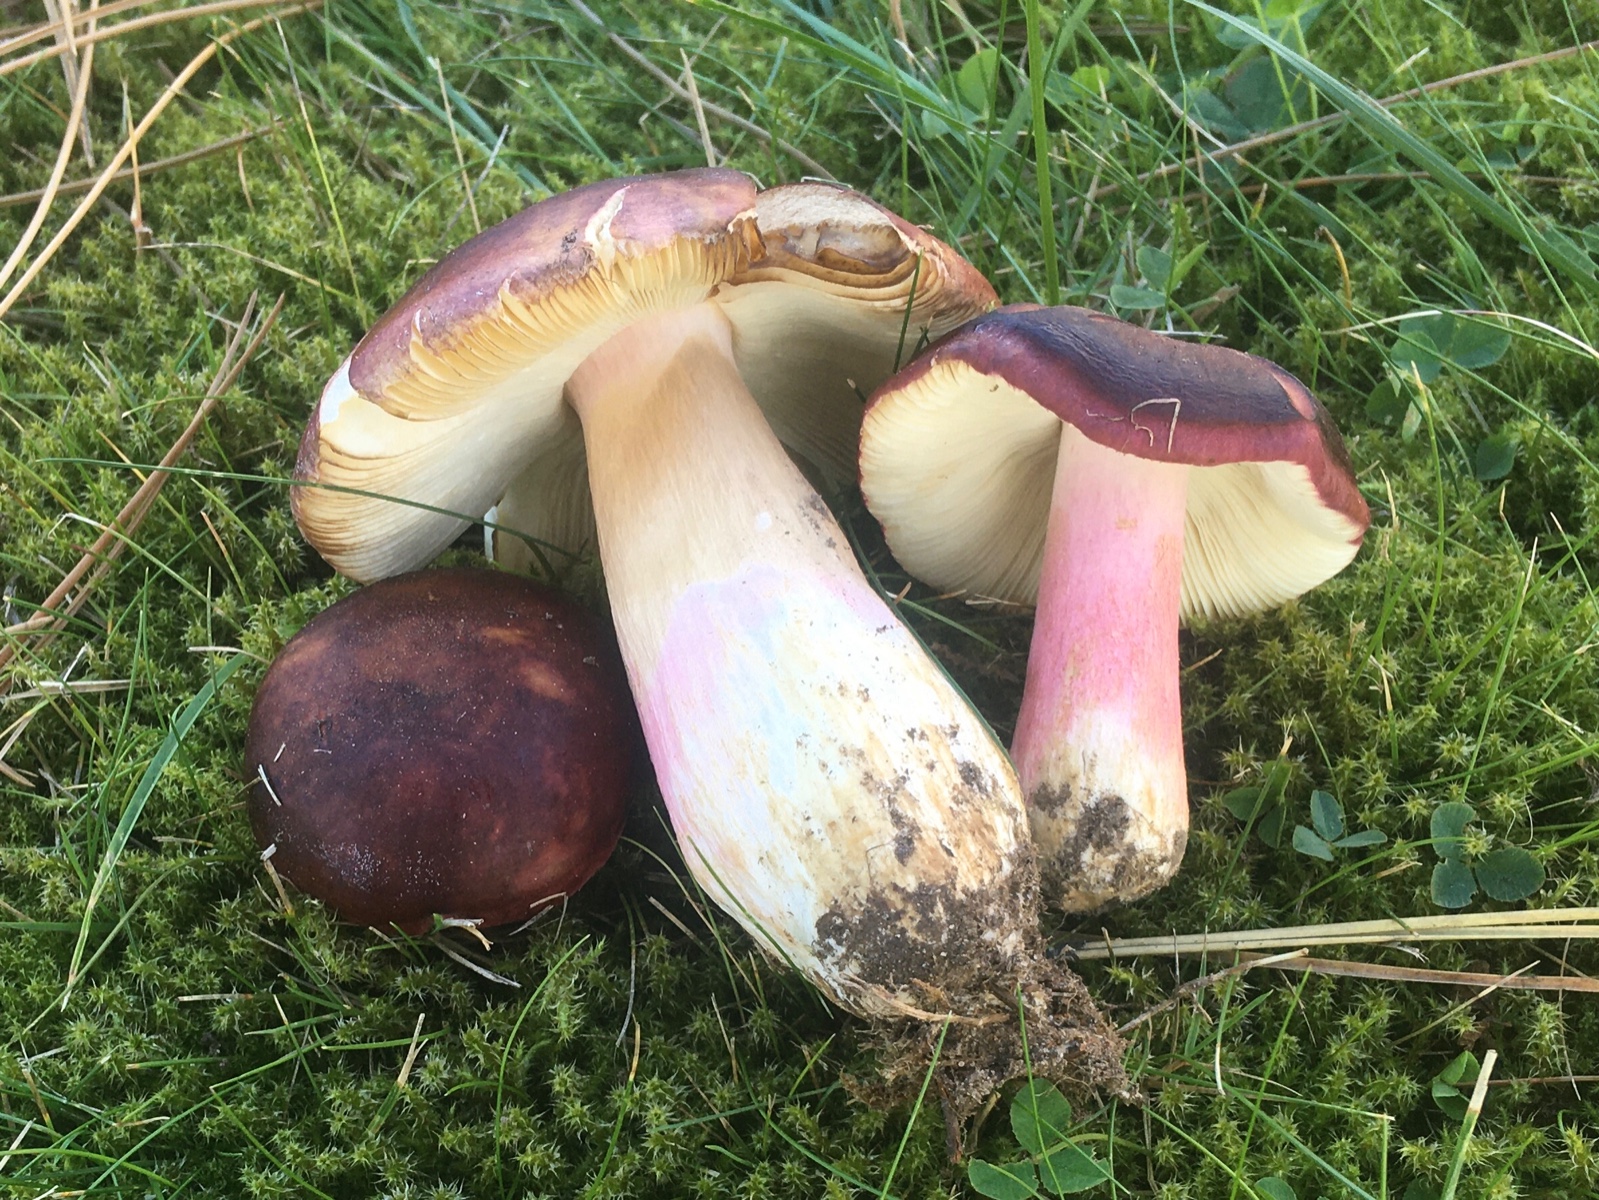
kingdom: Fungi
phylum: Basidiomycota
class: Agaricomycetes
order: Russulales
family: Russulaceae
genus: Russula
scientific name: Russula xerampelina
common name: hummer-skørhat
